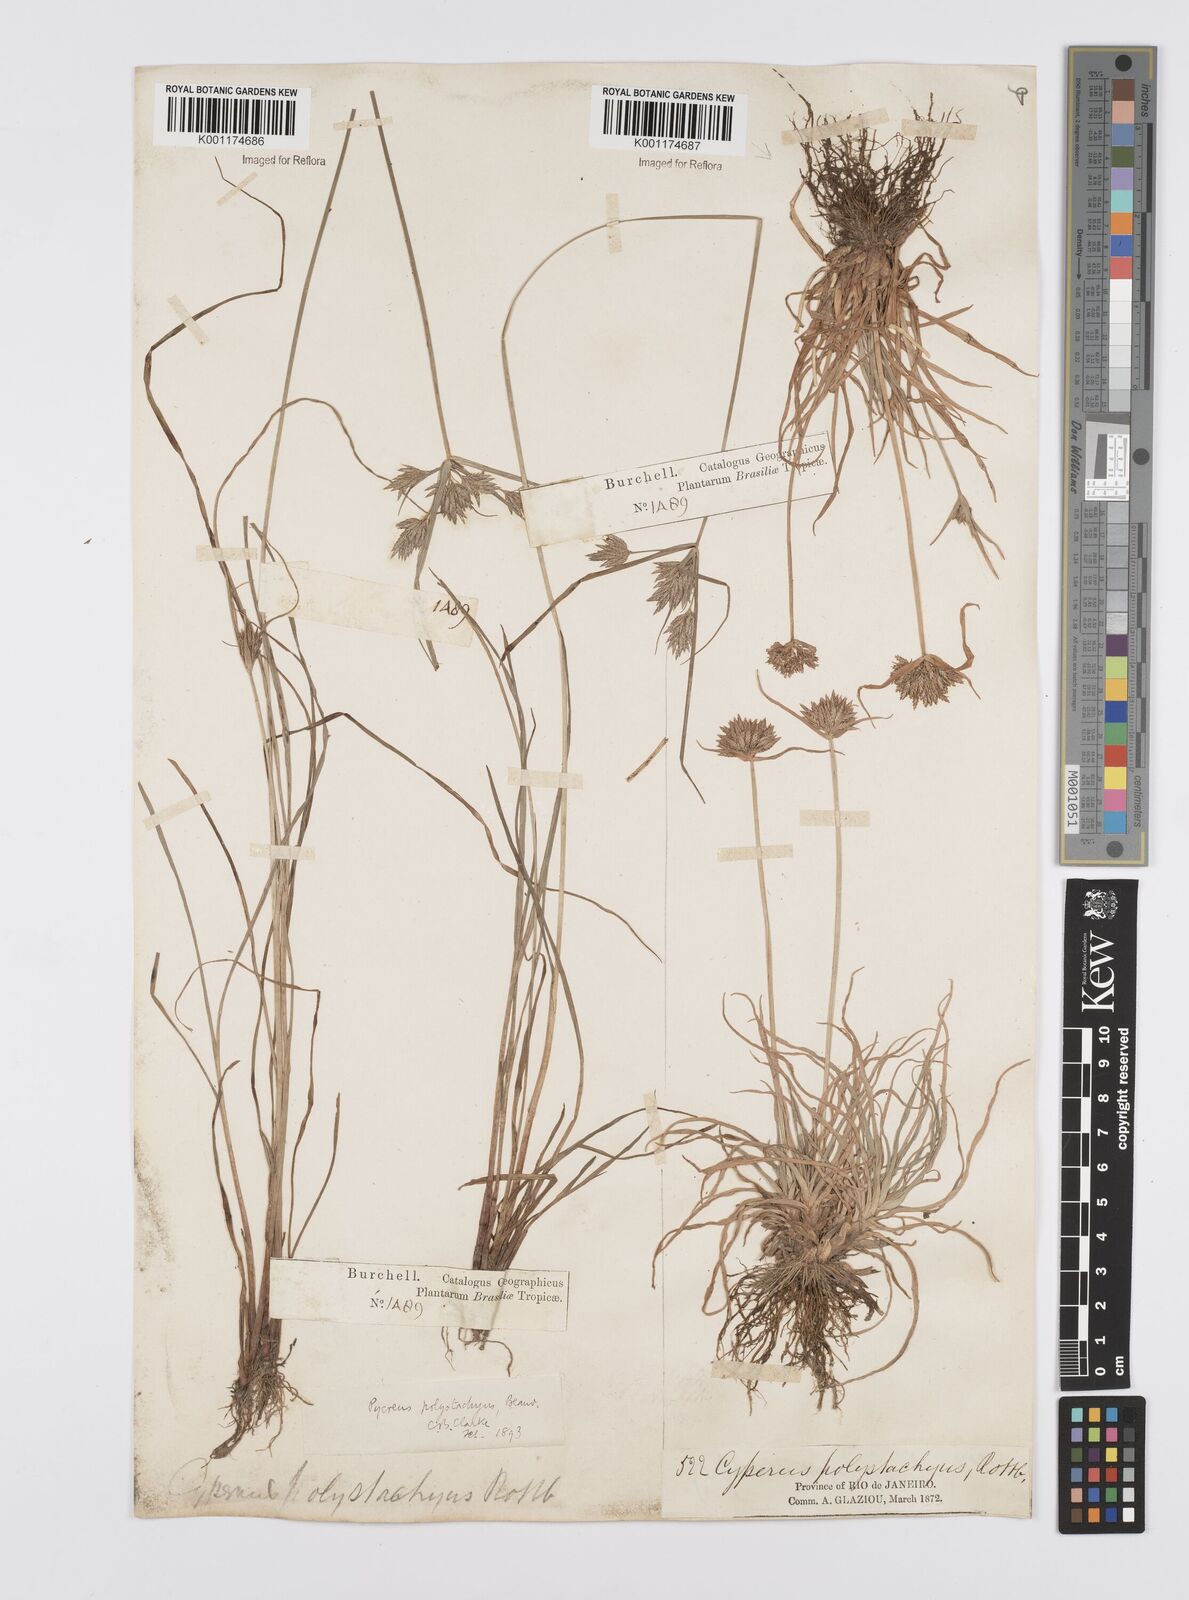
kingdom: Plantae
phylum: Tracheophyta
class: Liliopsida
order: Poales
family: Cyperaceae
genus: Cyperus
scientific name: Cyperus polystachyos
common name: Bunchy flat sedge
